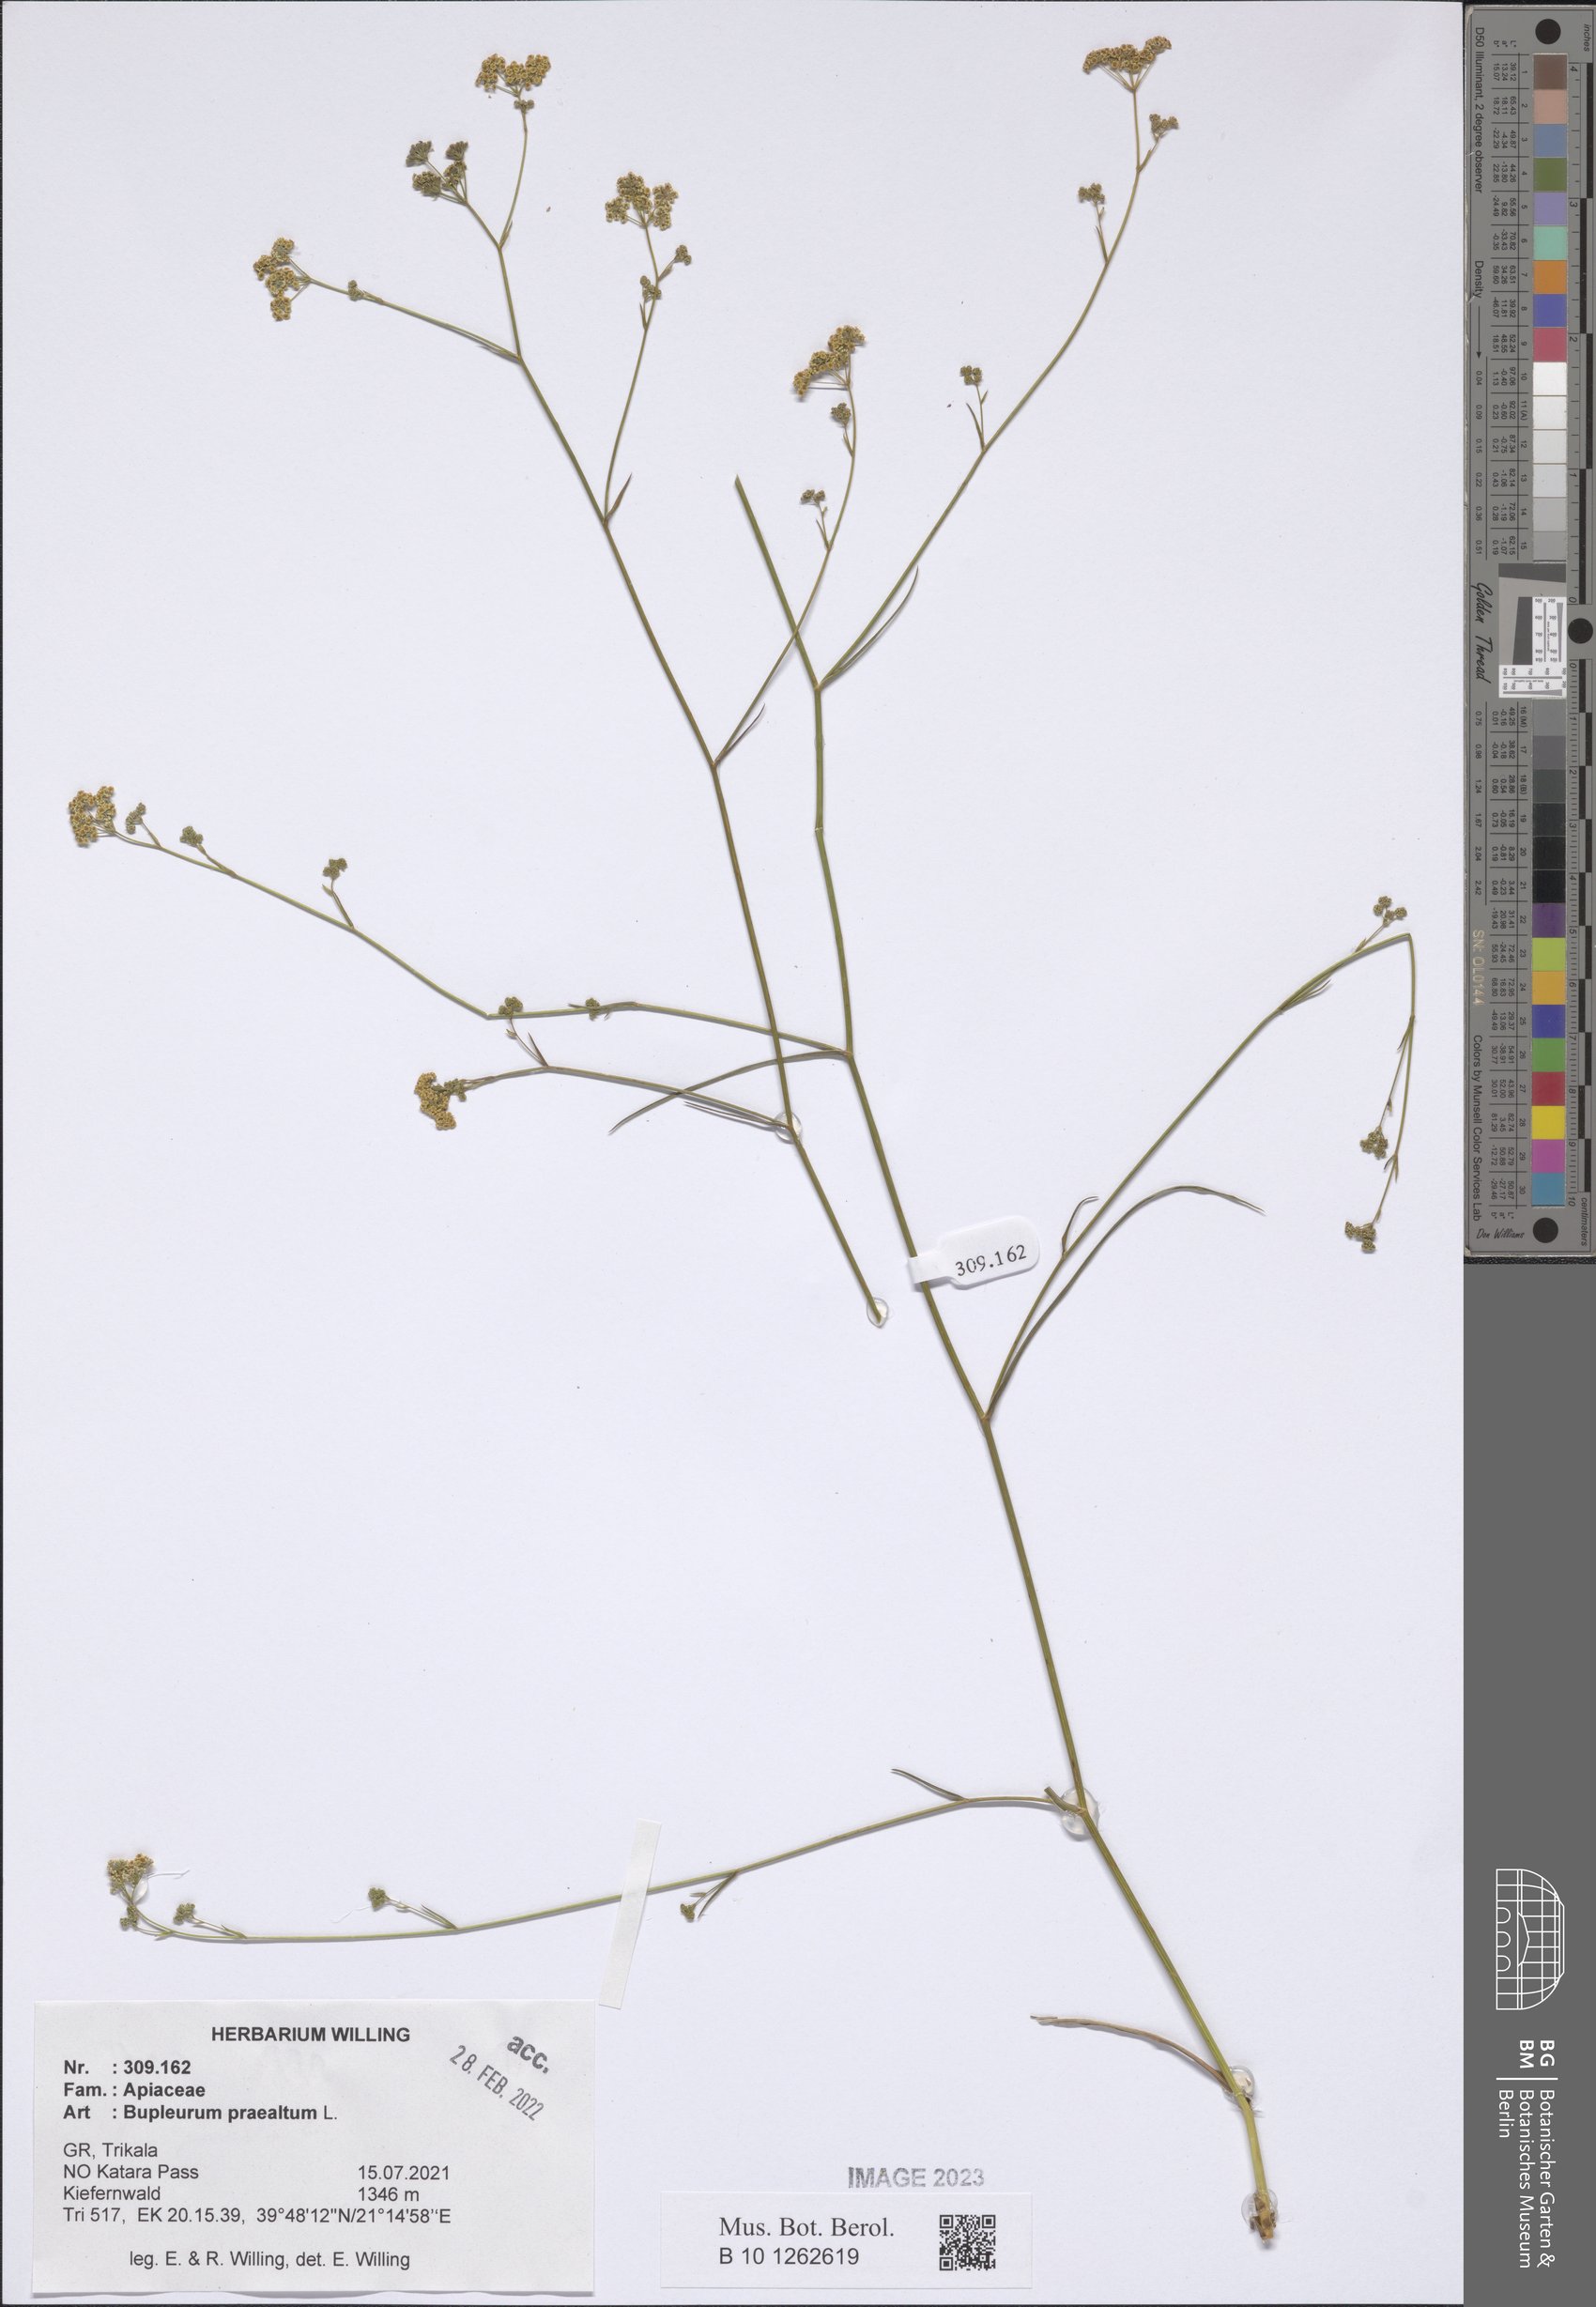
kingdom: Plantae
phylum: Tracheophyta
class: Magnoliopsida
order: Apiales
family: Apiaceae
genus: Bupleurum
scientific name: Bupleurum praealtum
